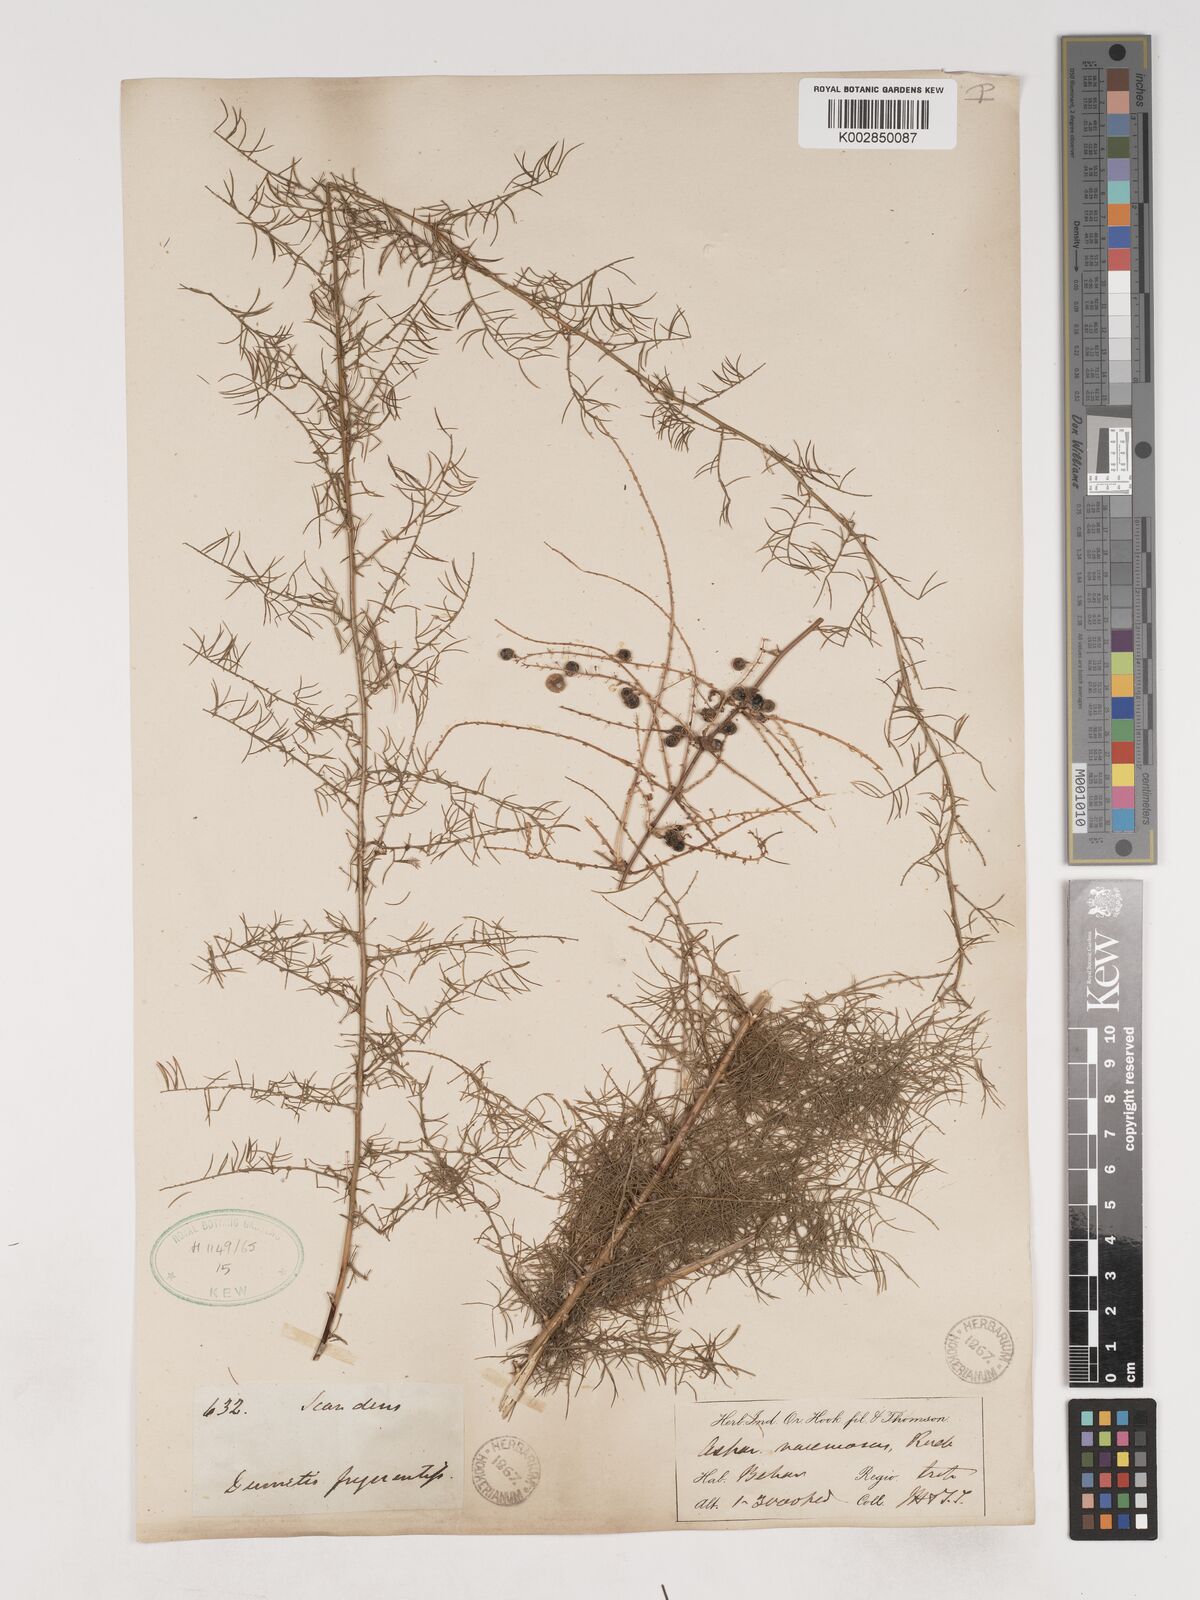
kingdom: Plantae
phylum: Tracheophyta
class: Liliopsida
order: Asparagales
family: Asparagaceae
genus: Asparagus
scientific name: Asparagus racemosus
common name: Asparagus-fern
